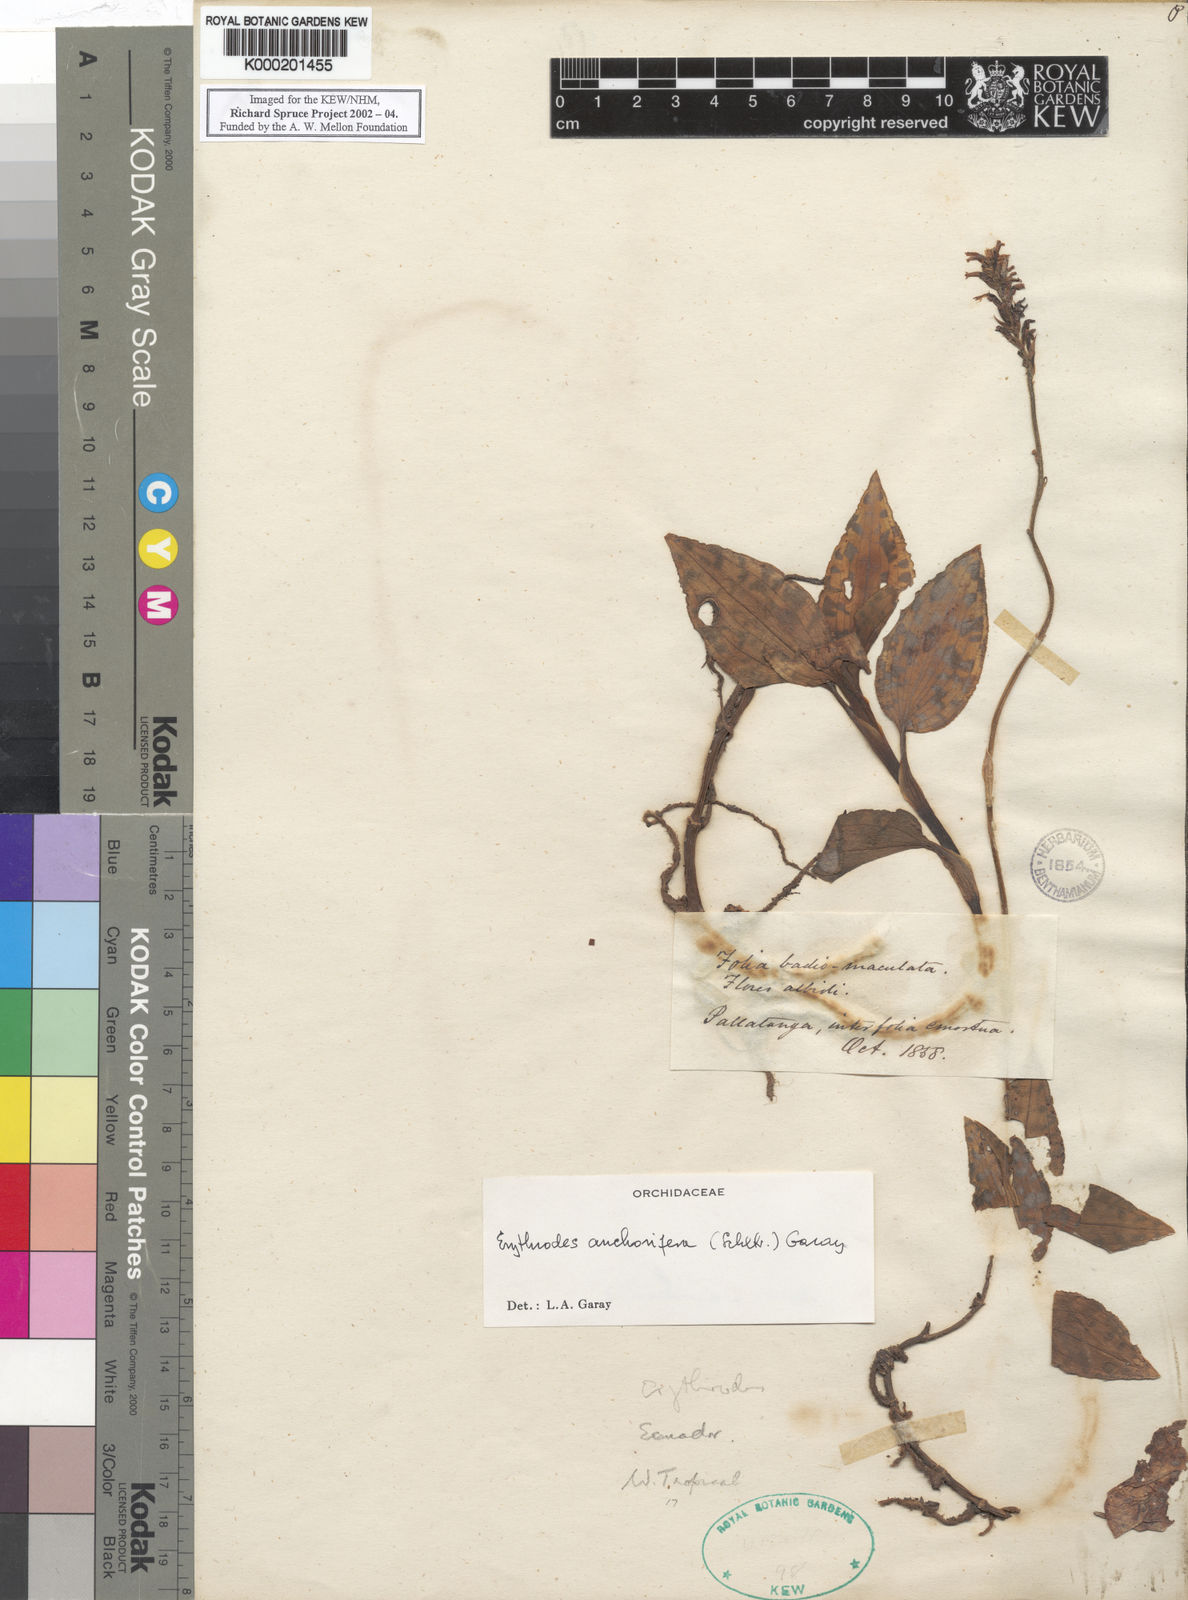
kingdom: Plantae
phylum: Tracheophyta
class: Liliopsida
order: Asparagales
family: Orchidaceae
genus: Microchilus
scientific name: Microchilus anchorifer
